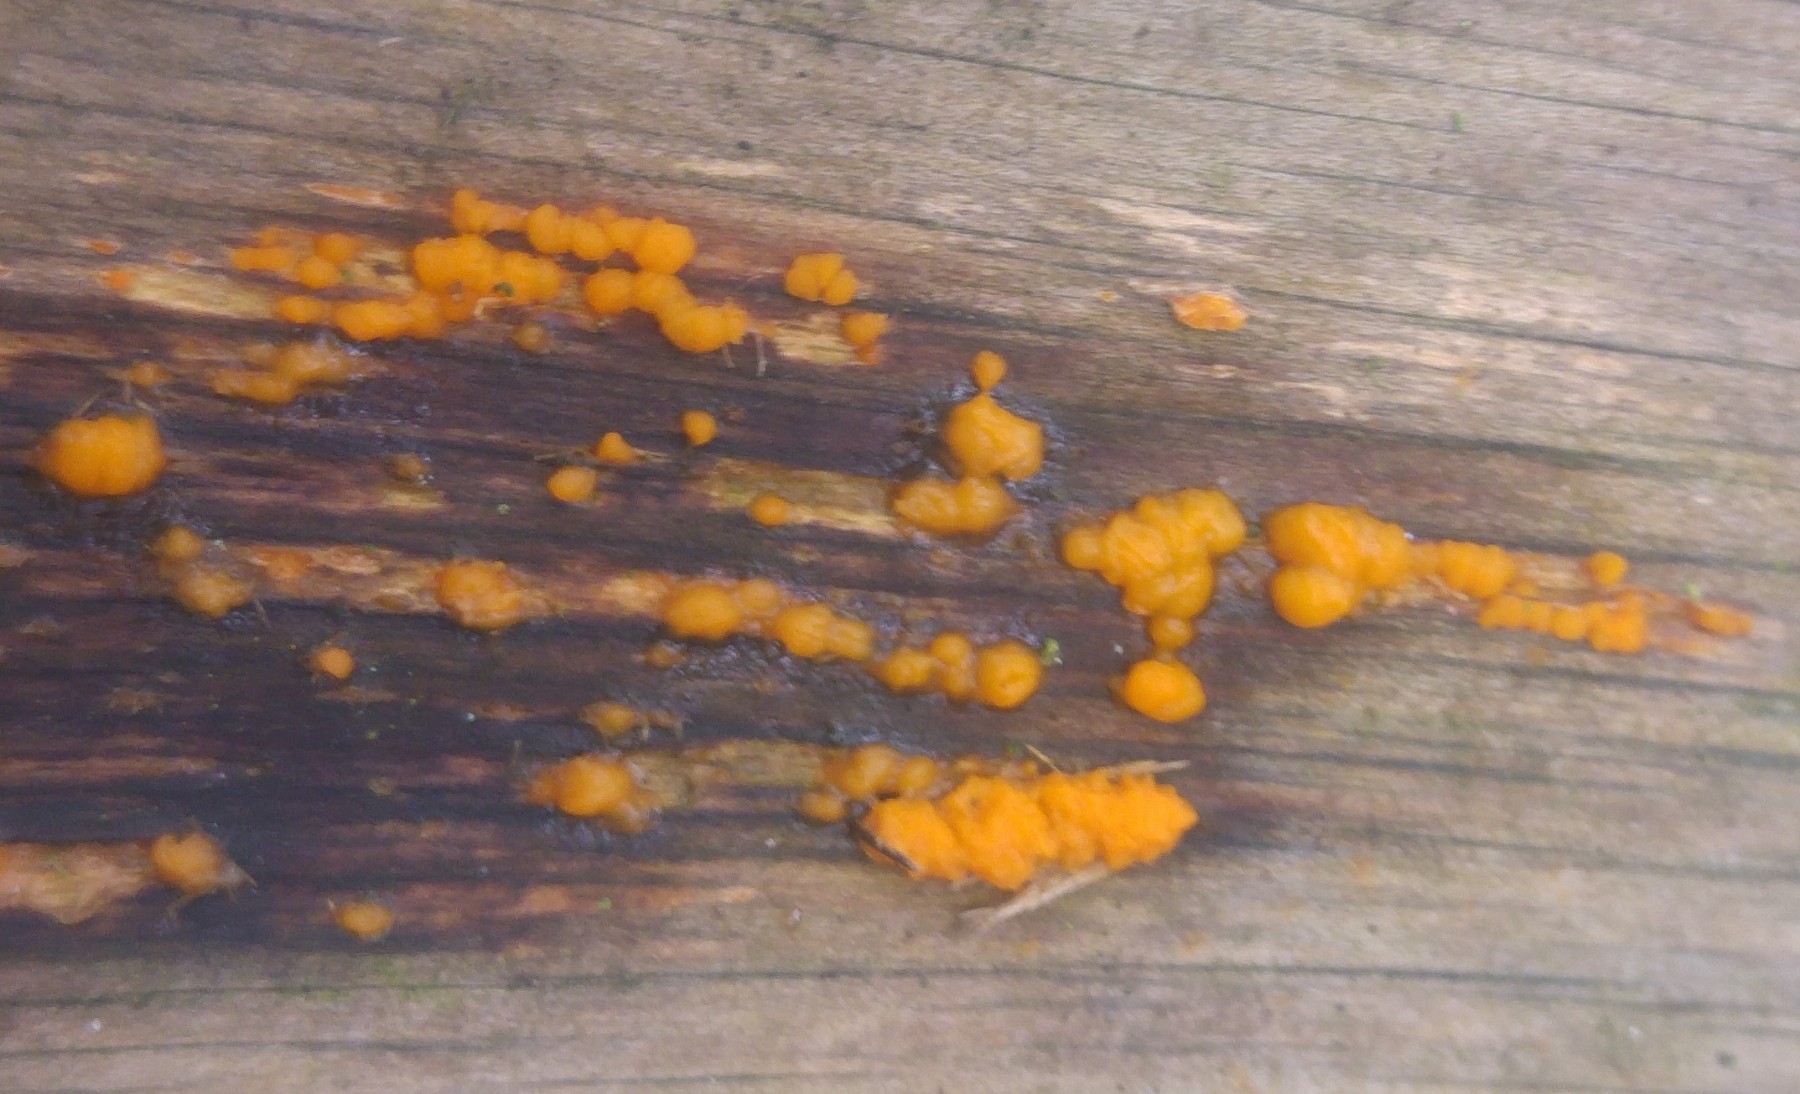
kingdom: Fungi
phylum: Basidiomycota
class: Dacrymycetes
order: Dacrymycetales
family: Dacrymycetaceae
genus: Dacrymyces
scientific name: Dacrymyces stillatus
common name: almindelig tåresvamp
